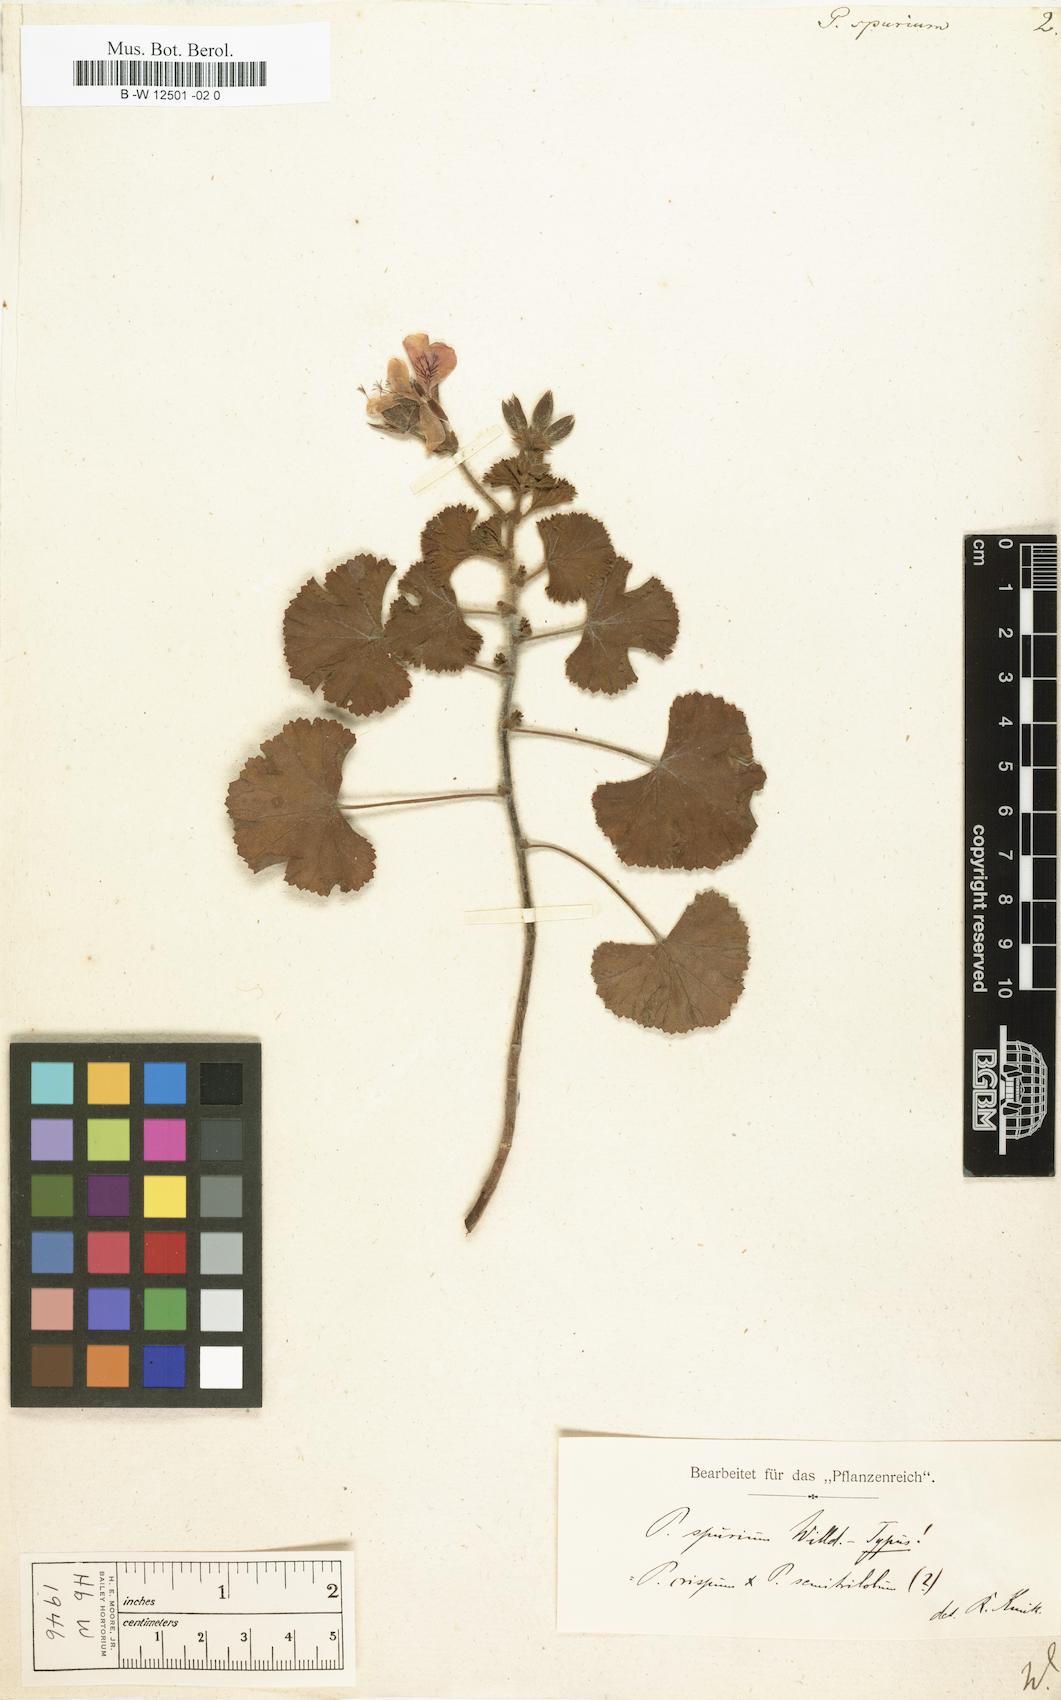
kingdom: Plantae
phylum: Tracheophyta
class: Magnoliopsida
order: Geraniales
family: Geraniaceae
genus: Pelargonium
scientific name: Pelargonium spurium
